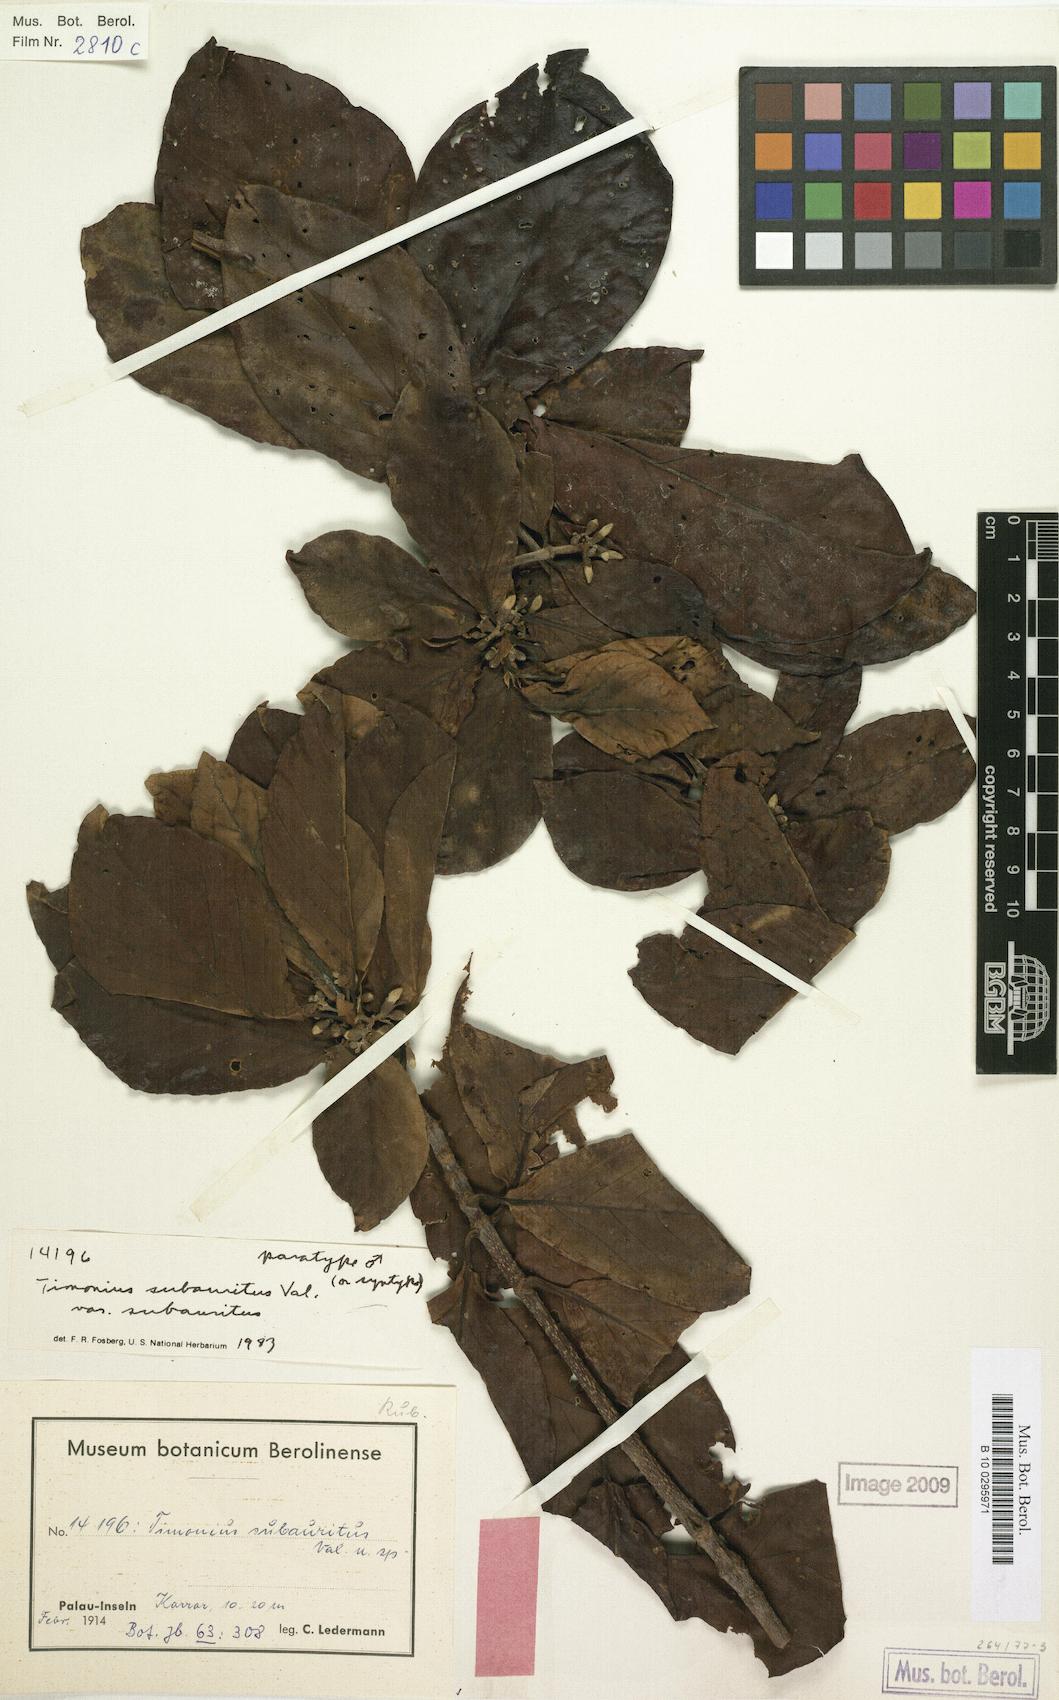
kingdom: Plantae
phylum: Tracheophyta
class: Magnoliopsida
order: Gentianales
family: Rubiaceae
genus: Timonius
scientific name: Timonius subauritus
